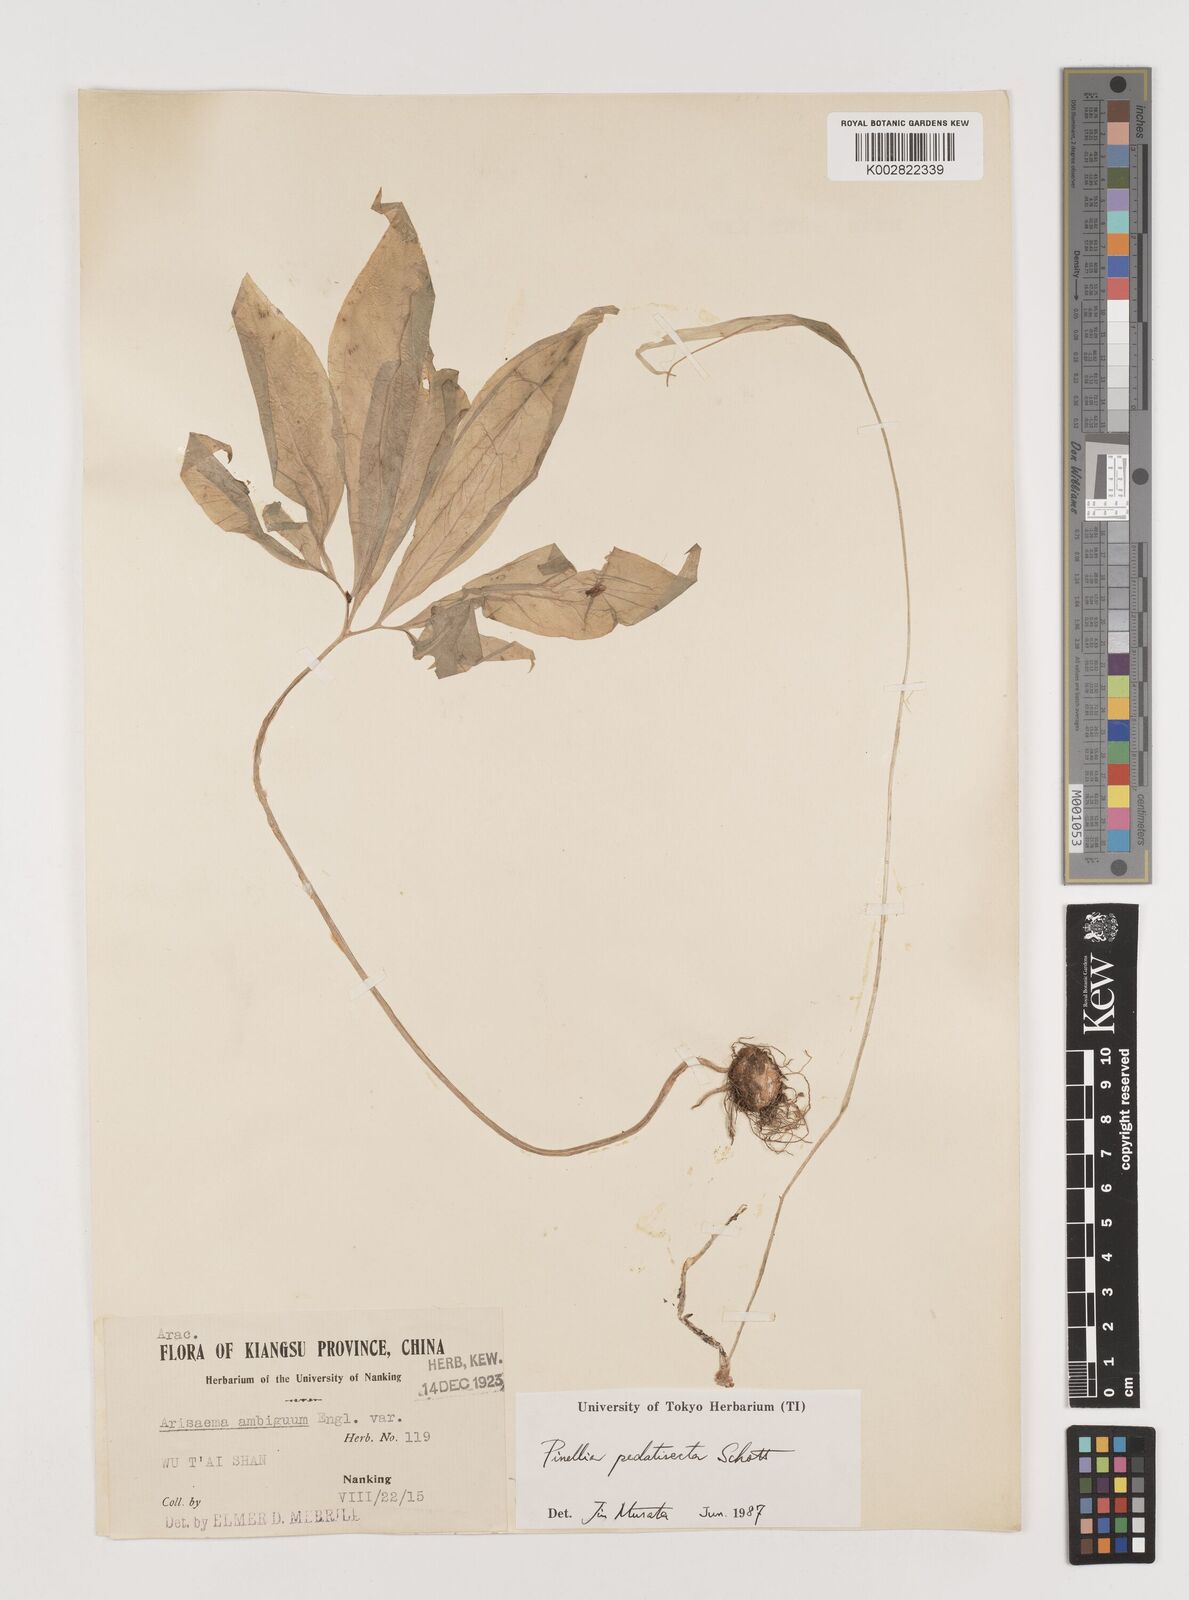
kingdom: Plantae
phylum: Tracheophyta
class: Liliopsida
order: Alismatales
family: Araceae
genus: Pinellia
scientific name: Pinellia pedatisecta
